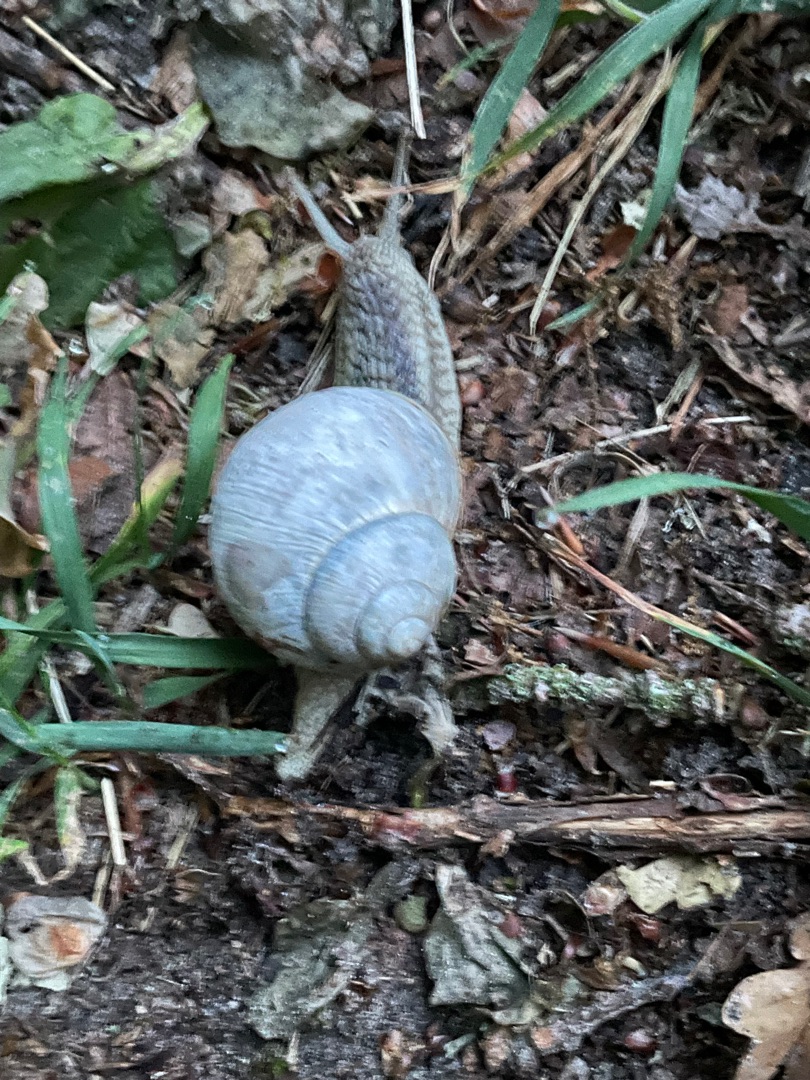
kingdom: Animalia
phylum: Mollusca
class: Gastropoda
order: Stylommatophora
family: Helicidae
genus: Helix
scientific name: Helix pomatia
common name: Vinbjergsnegl
